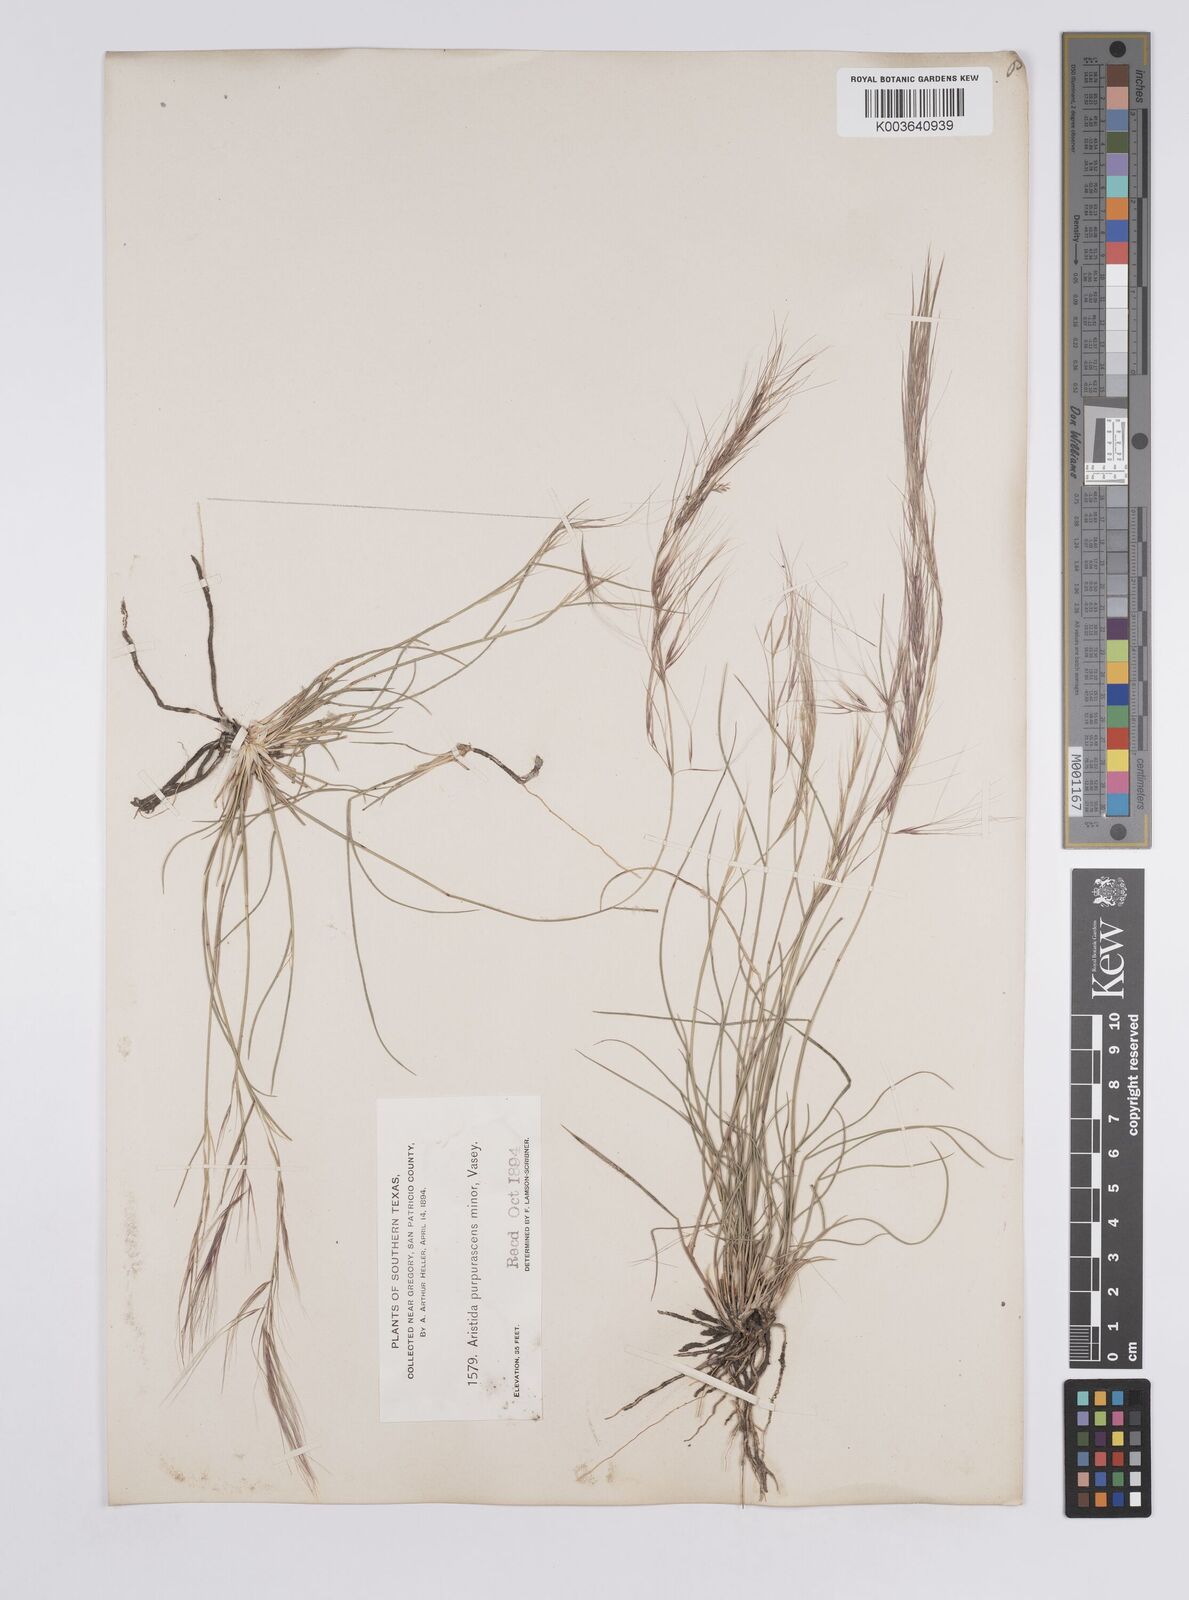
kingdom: Plantae
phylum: Tracheophyta
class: Liliopsida
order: Poales
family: Poaceae
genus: Aristida
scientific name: Aristida purpurea
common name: Purple threeawn
